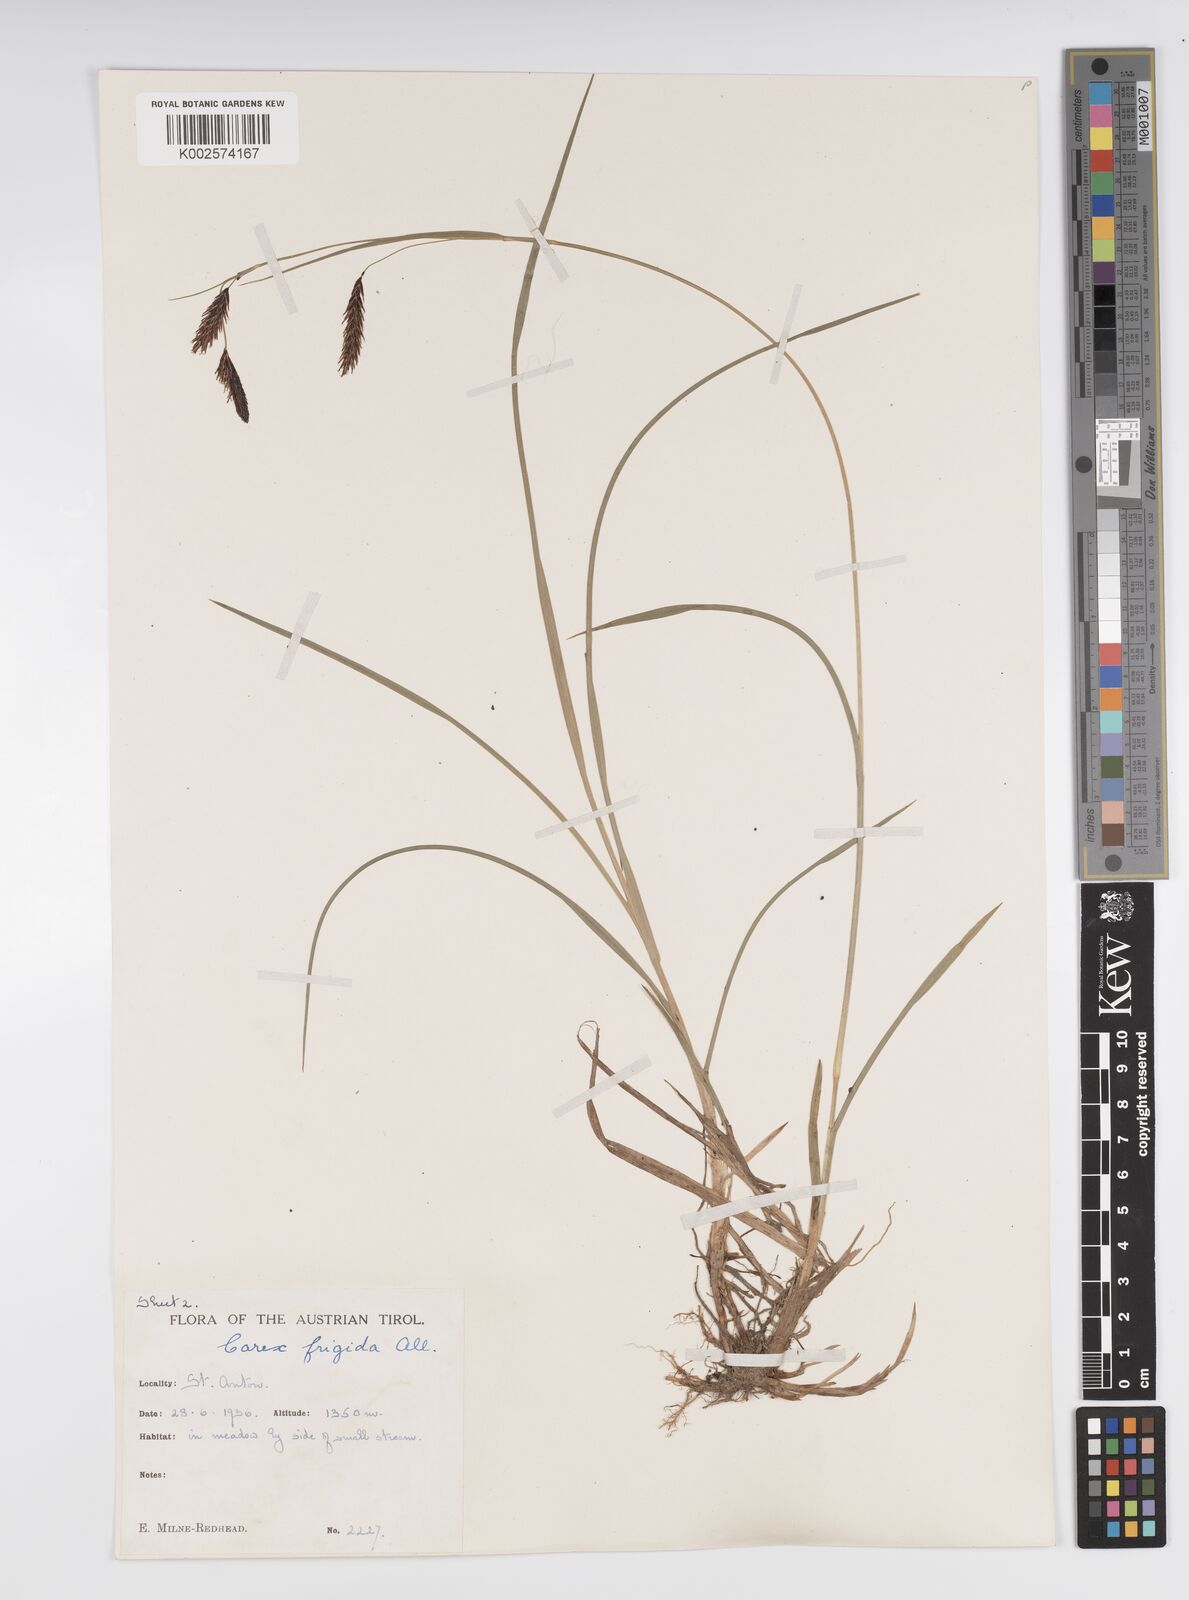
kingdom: Plantae
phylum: Tracheophyta
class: Liliopsida
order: Poales
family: Cyperaceae
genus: Carex
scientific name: Carex frigida
